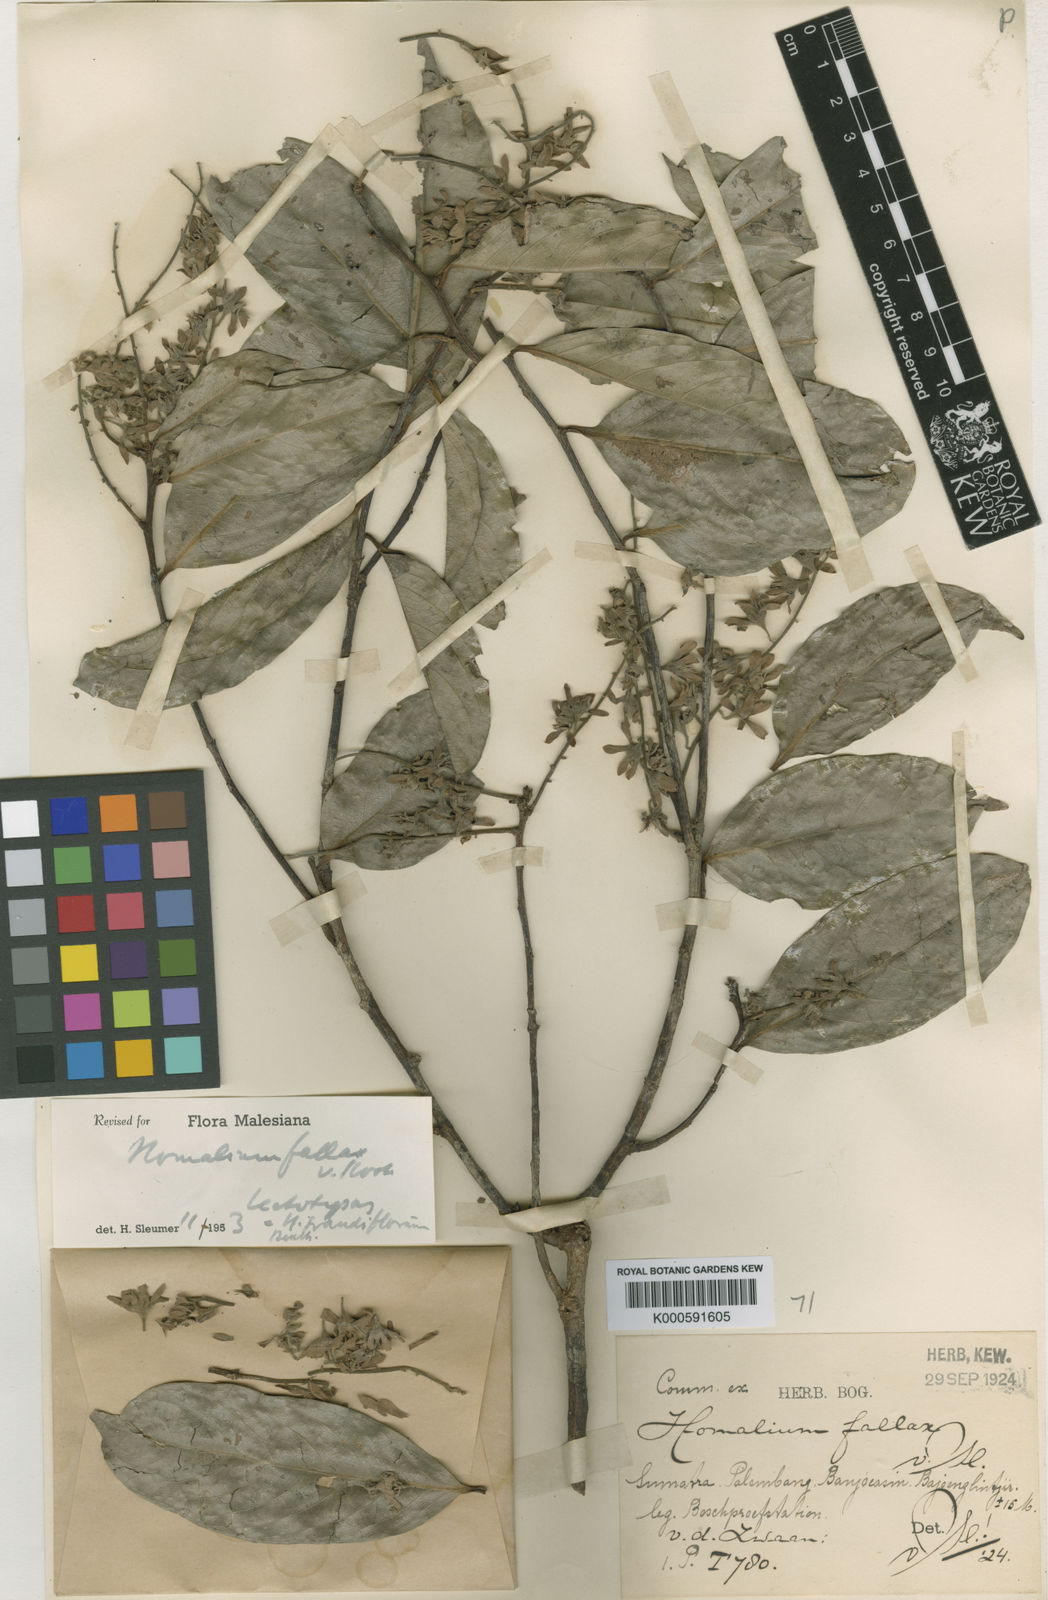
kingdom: Plantae
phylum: Tracheophyta
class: Magnoliopsida
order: Malpighiales
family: Salicaceae
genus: Homalium
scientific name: Homalium grandiflorum
